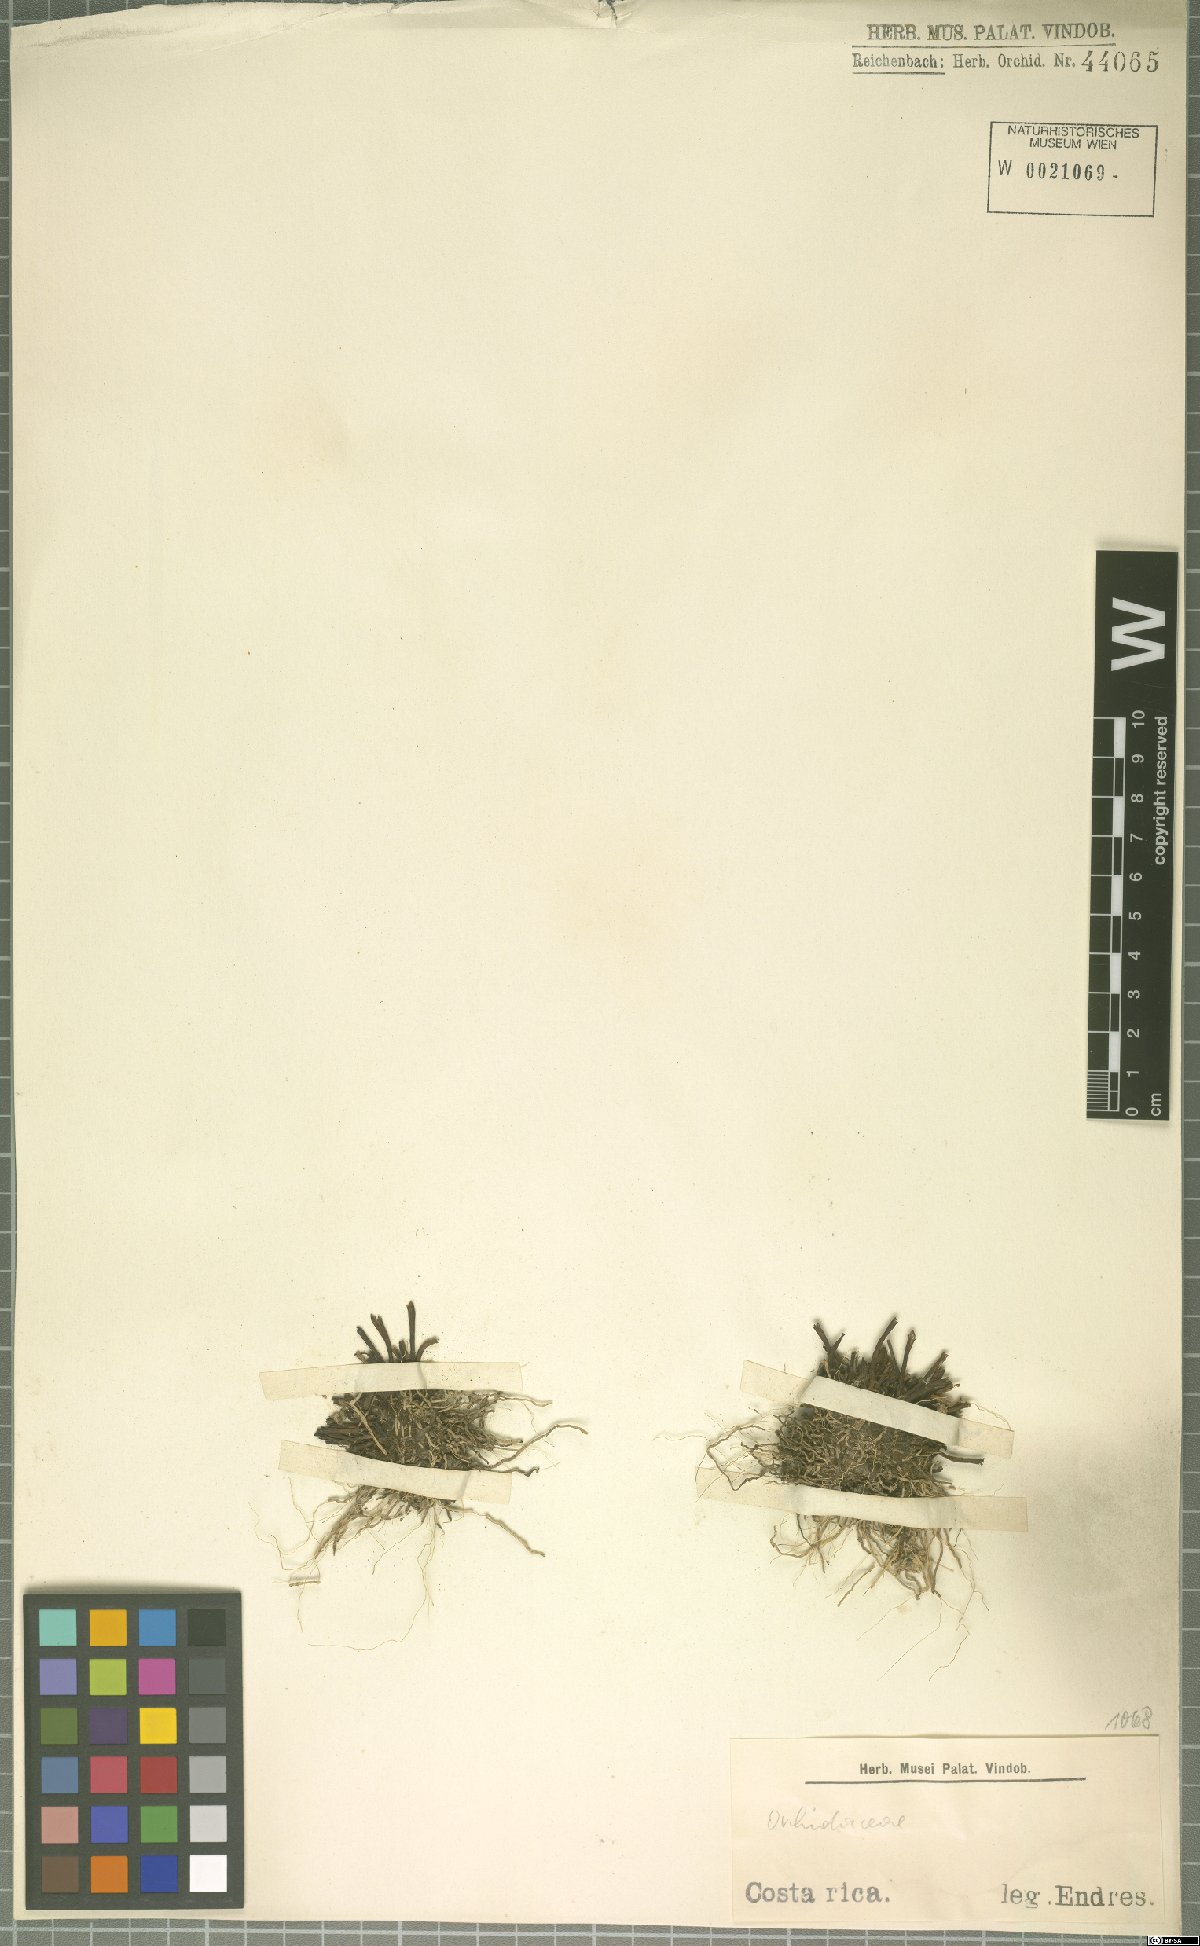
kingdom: Plantae
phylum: Tracheophyta
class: Liliopsida
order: Asparagales
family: Orchidaceae
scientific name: Orchidaceae
